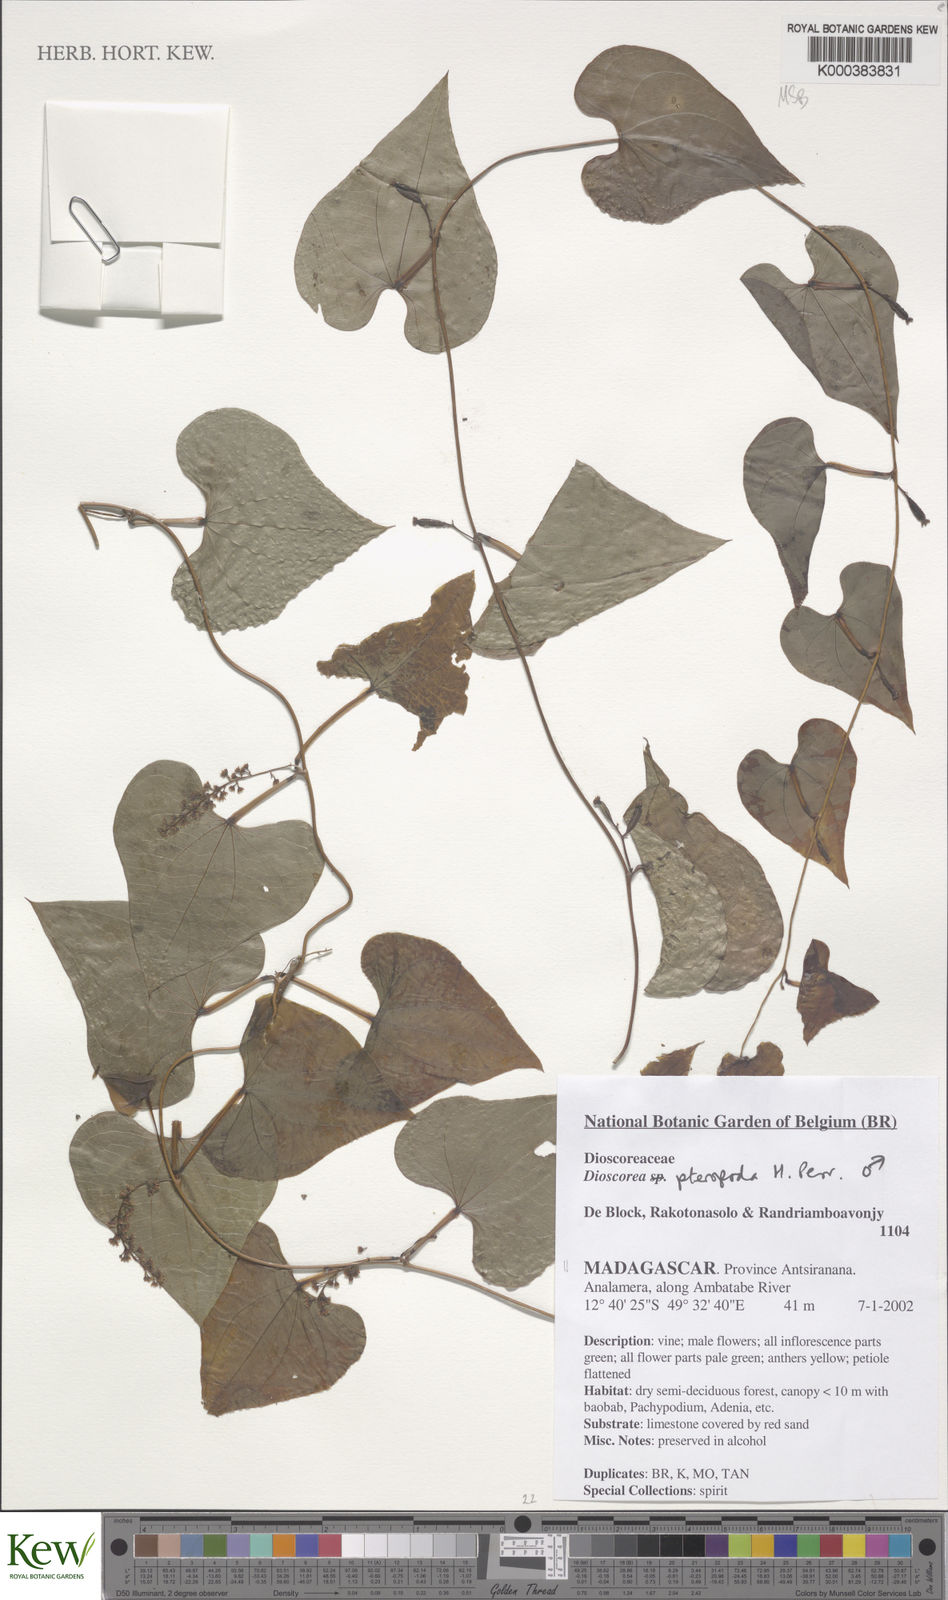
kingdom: Plantae
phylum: Tracheophyta
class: Liliopsida
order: Dioscoreales
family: Dioscoreaceae
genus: Dioscorea
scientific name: Dioscorea
